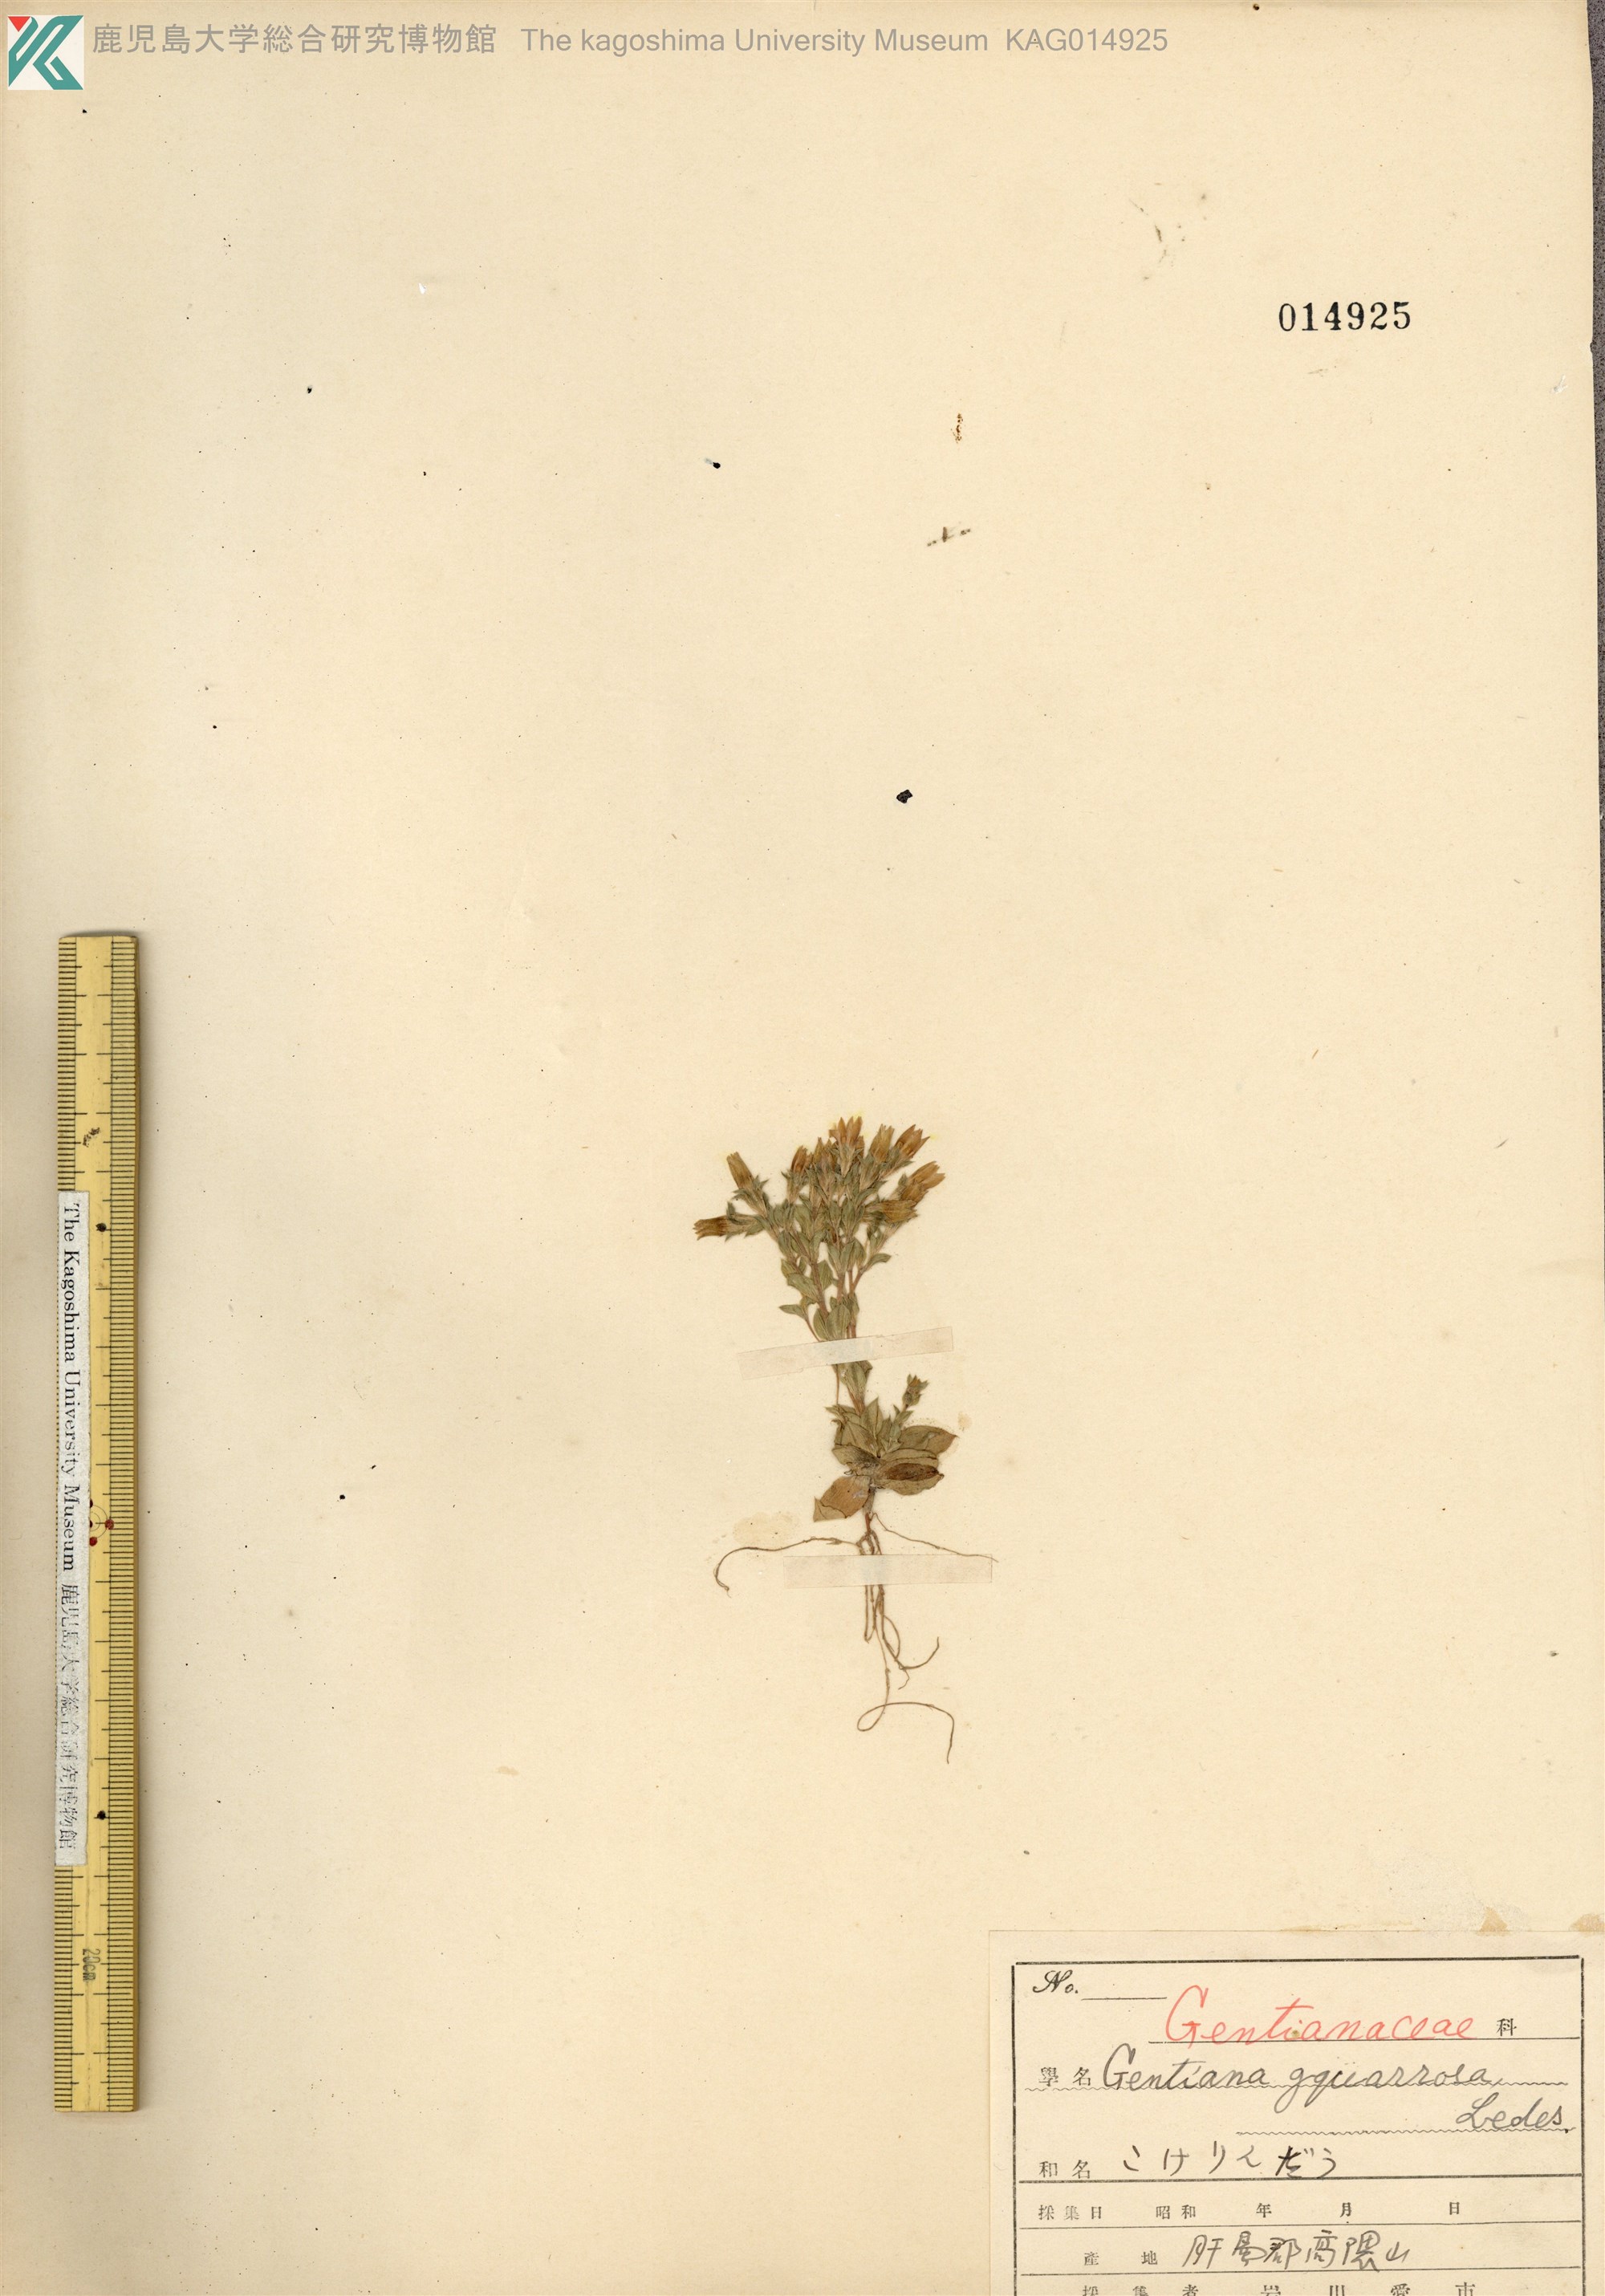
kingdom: Plantae
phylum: Tracheophyta
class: Magnoliopsida
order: Gentianales
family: Gentianaceae
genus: Gentiana
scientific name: Gentiana squarrosa
